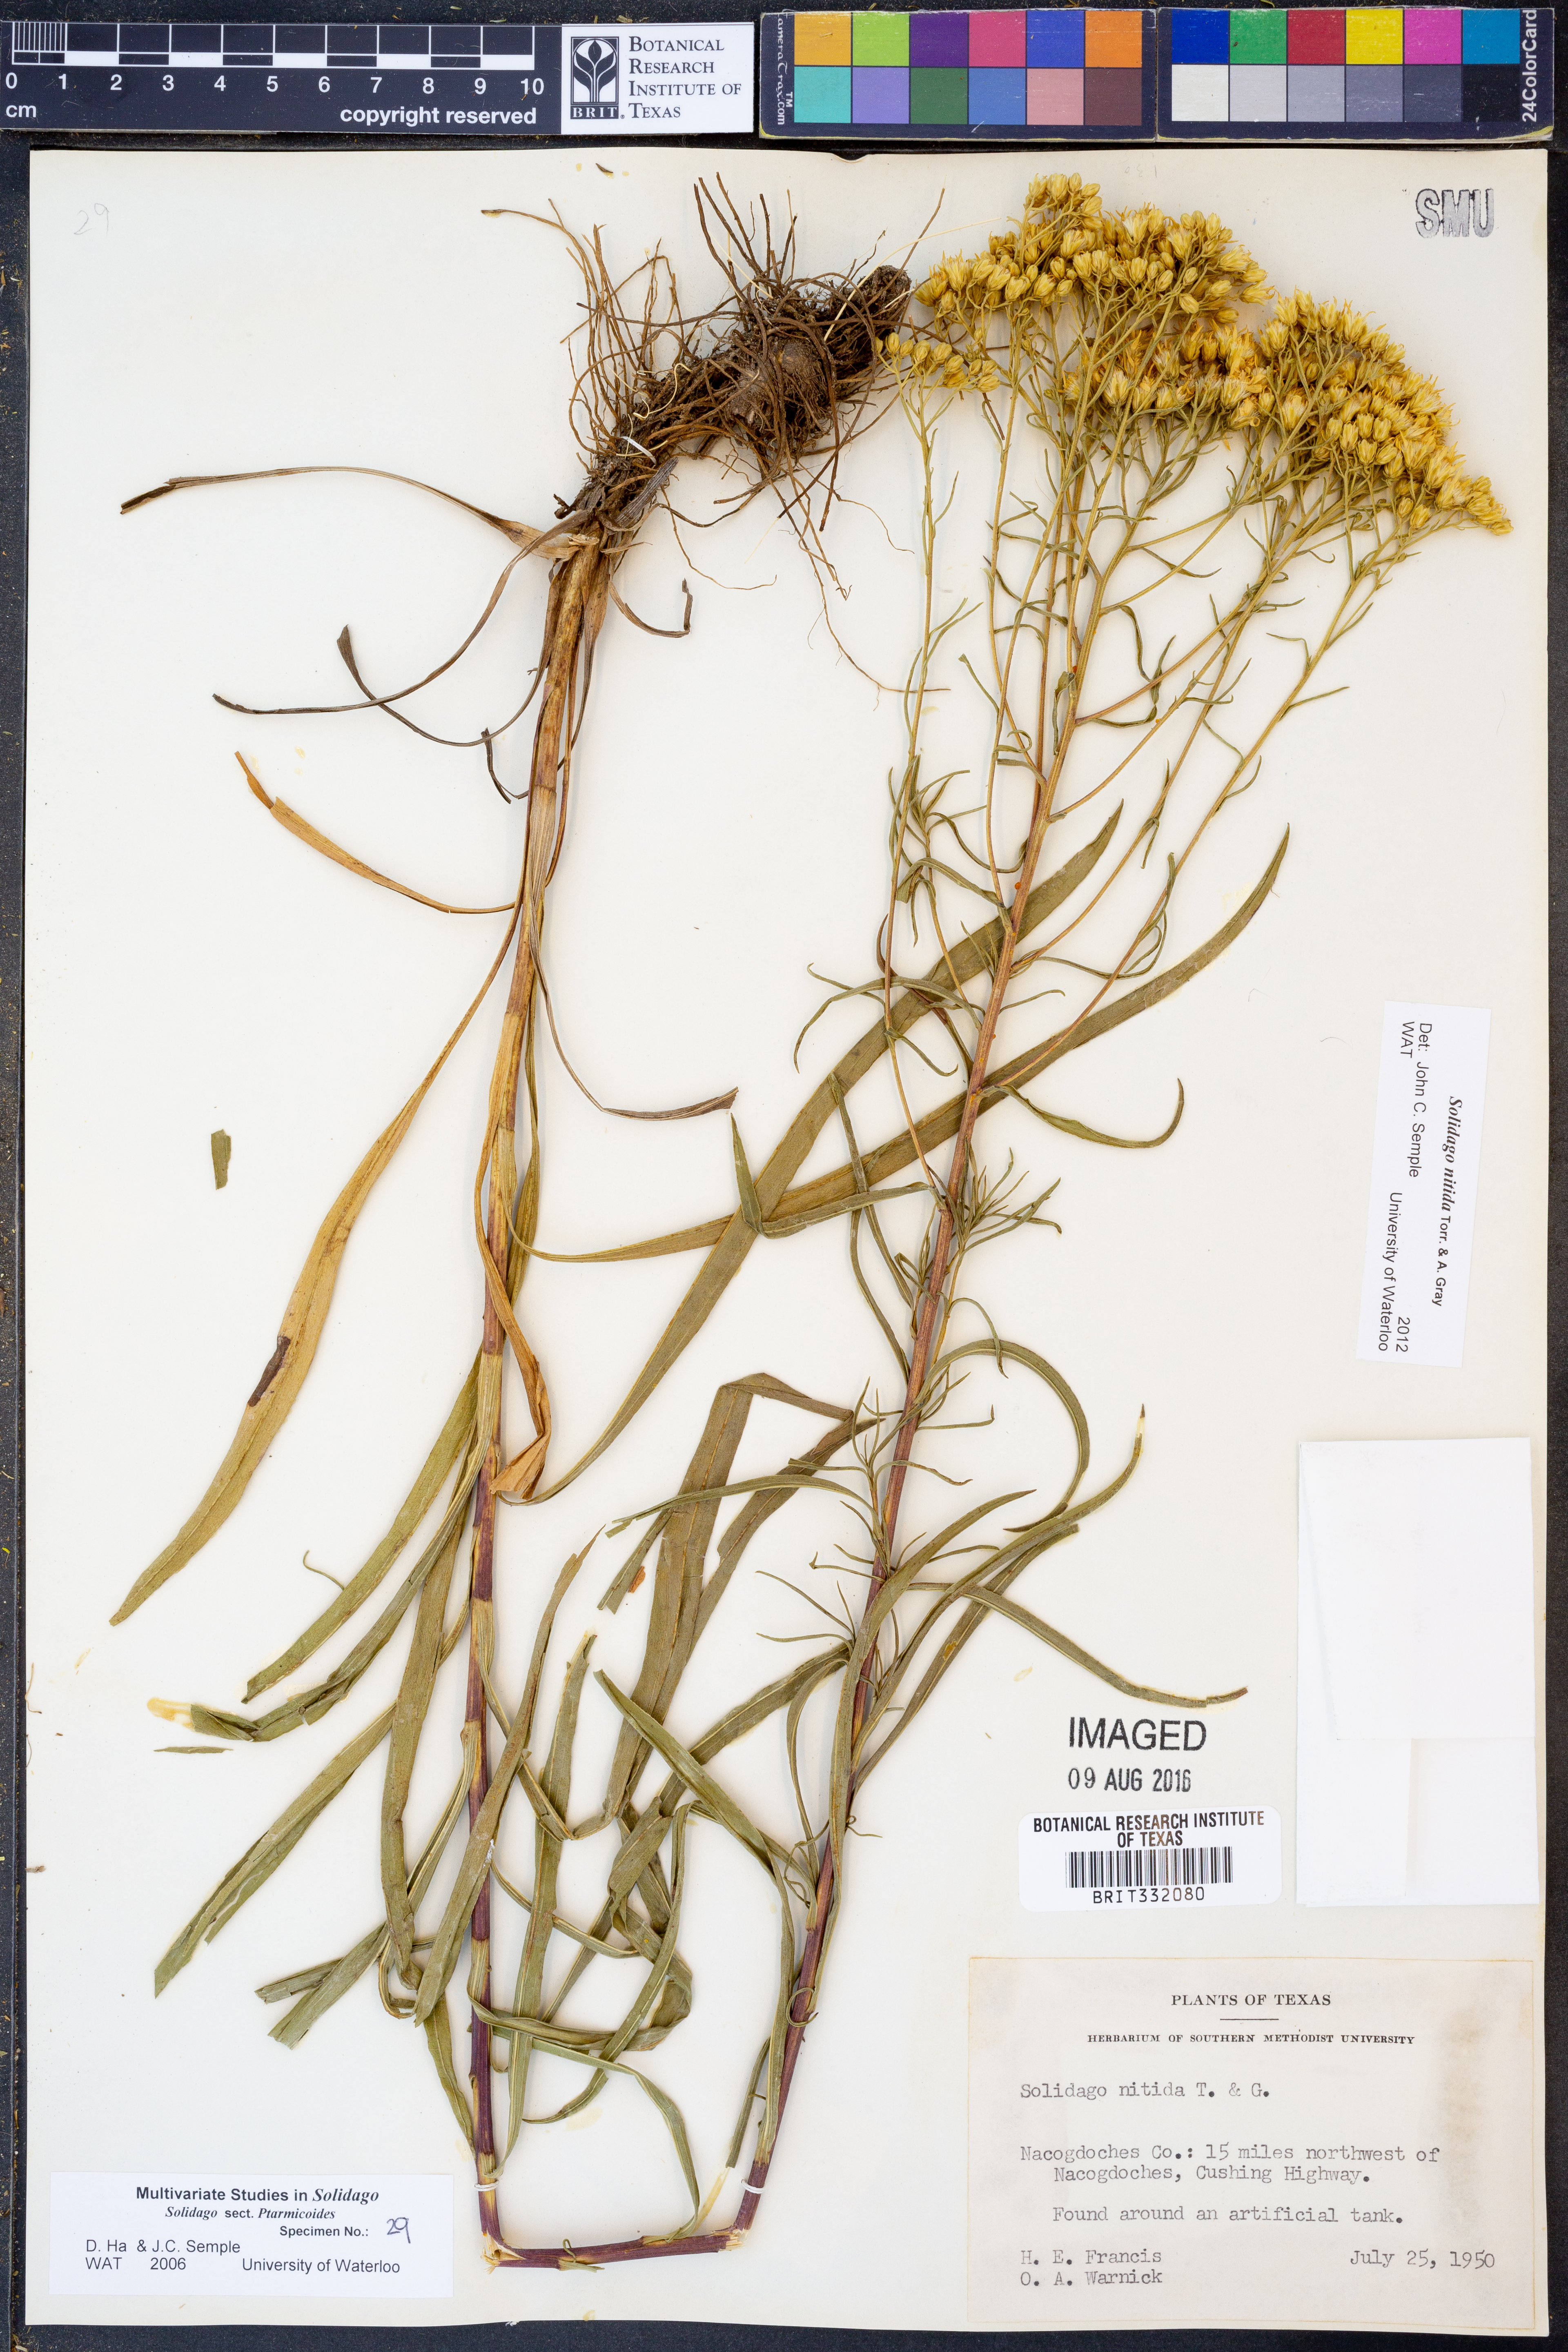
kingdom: Plantae
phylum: Tracheophyta
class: Magnoliopsida
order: Asterales
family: Asteraceae
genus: Solidago
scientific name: Solidago nitida
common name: Shiny goldenrod
